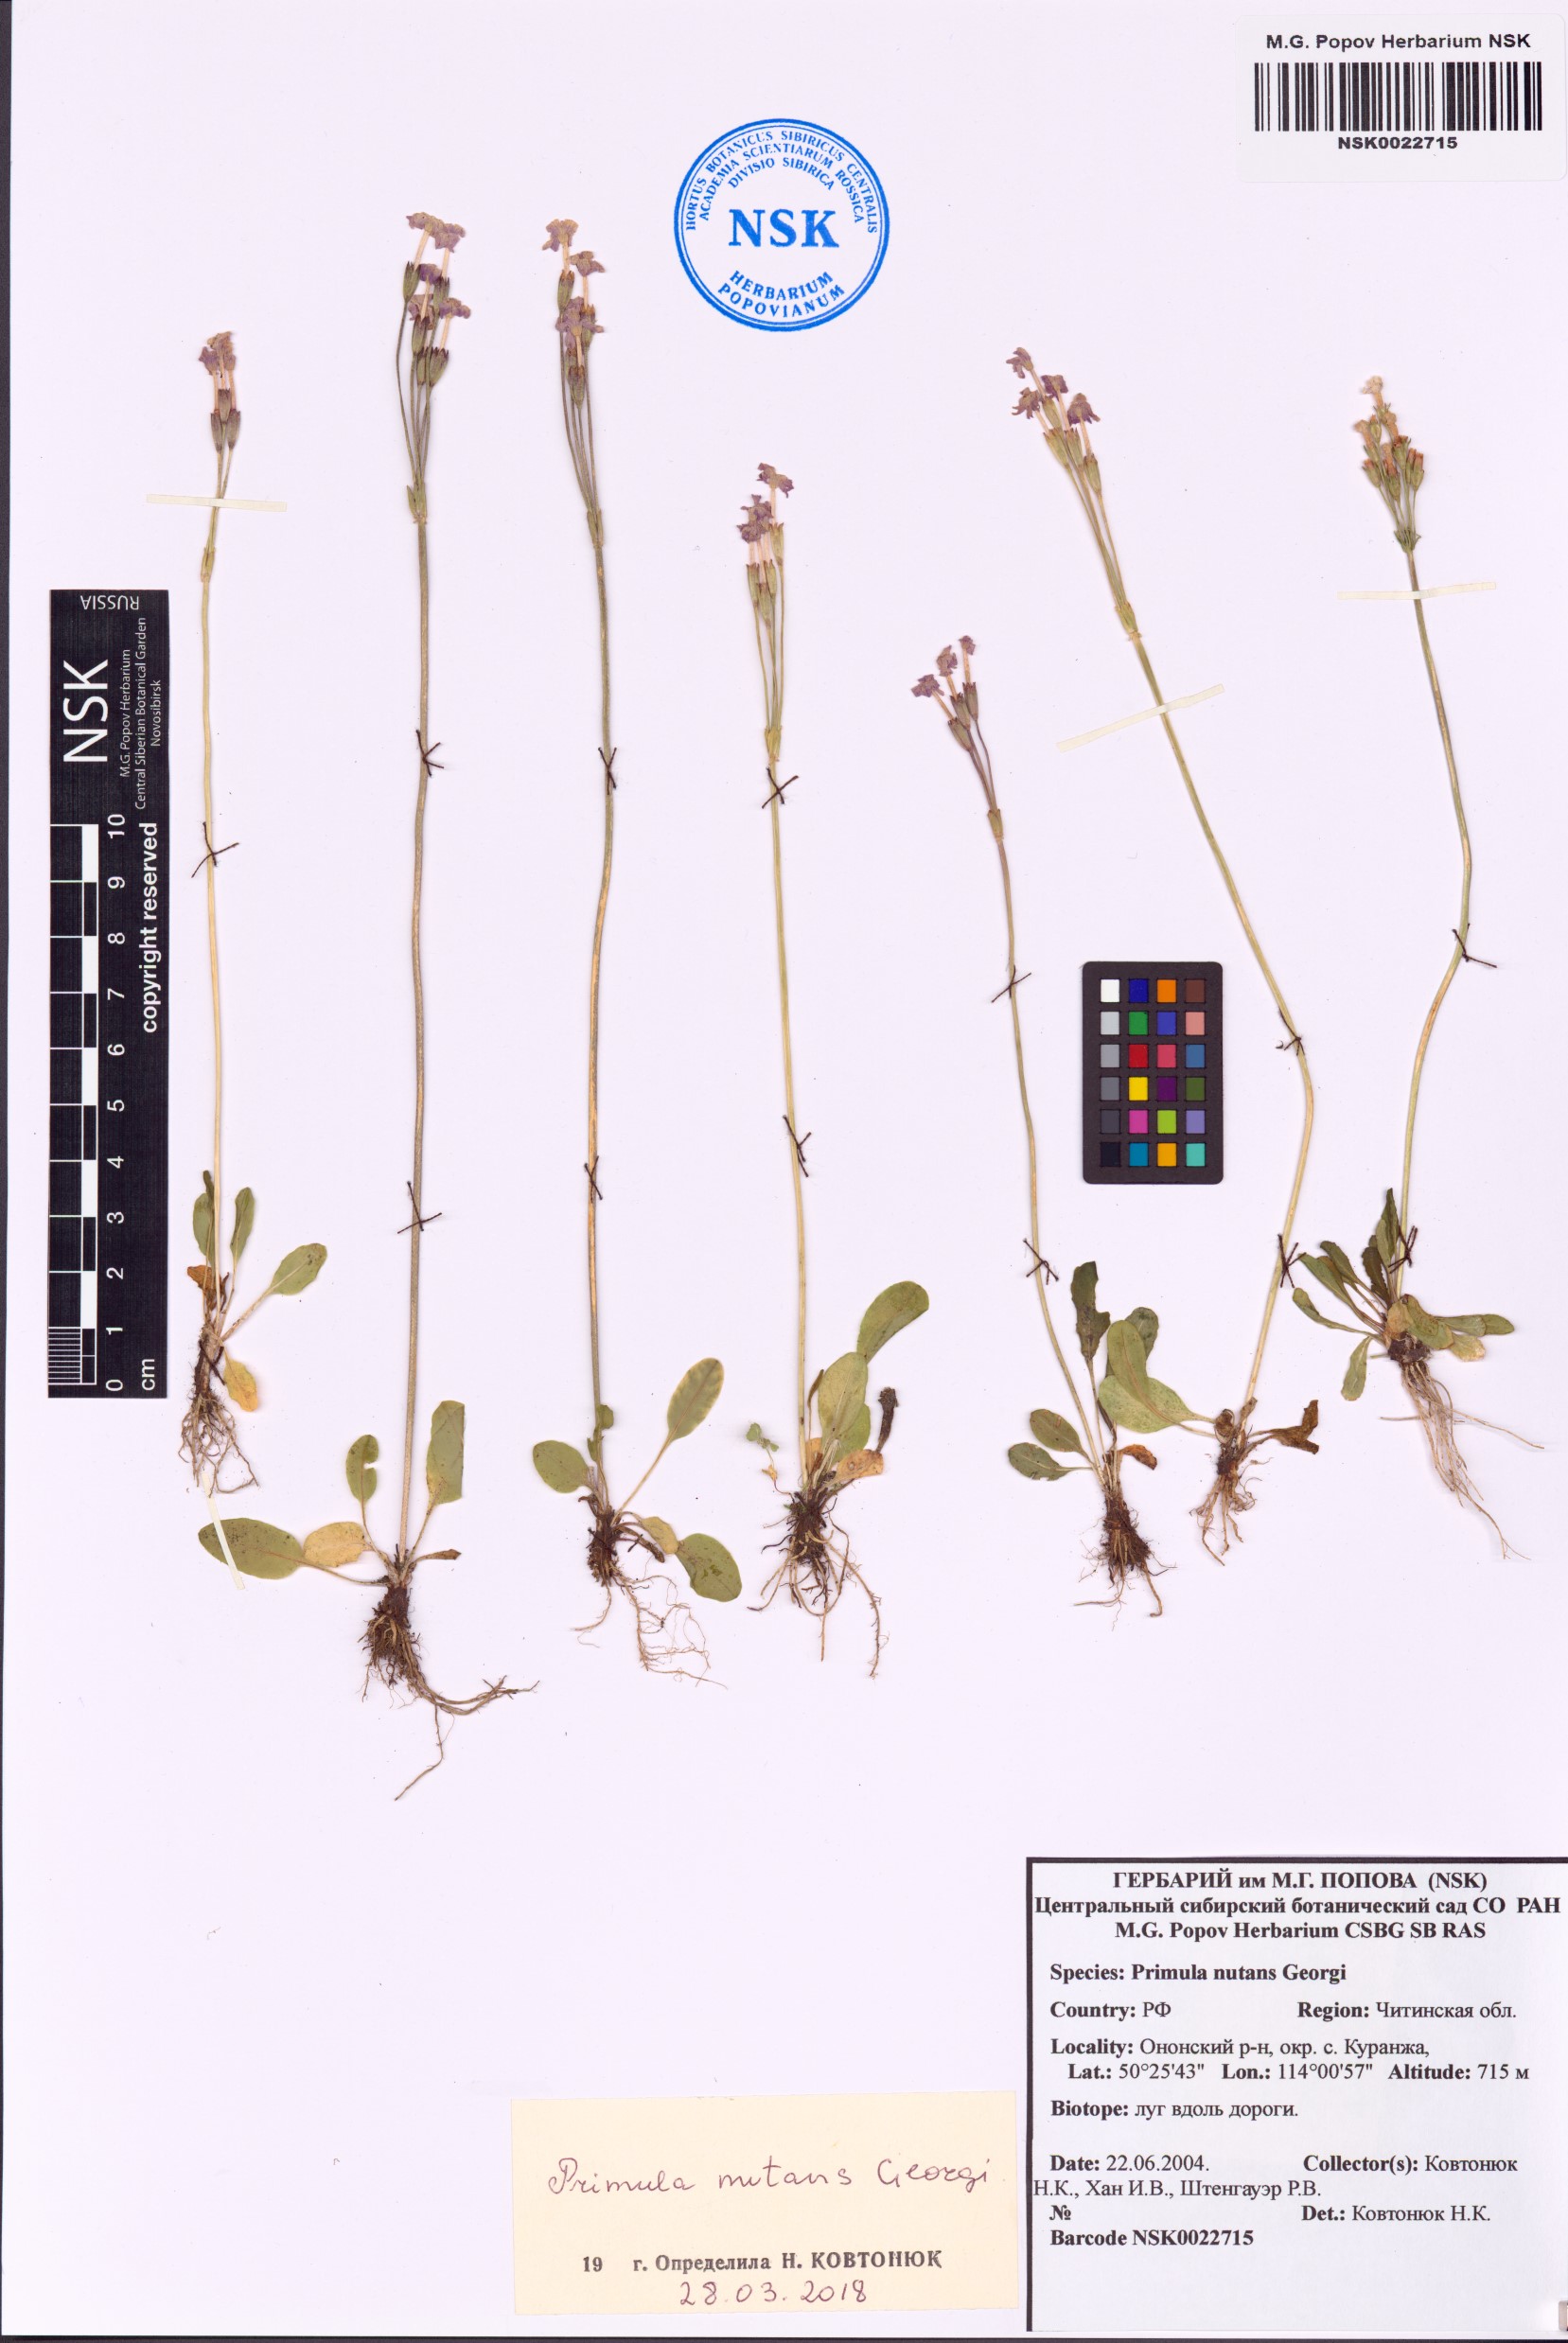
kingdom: Plantae
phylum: Tracheophyta
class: Magnoliopsida
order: Ericales
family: Primulaceae
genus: Primula
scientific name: Primula nutans
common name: Siberian primrose
